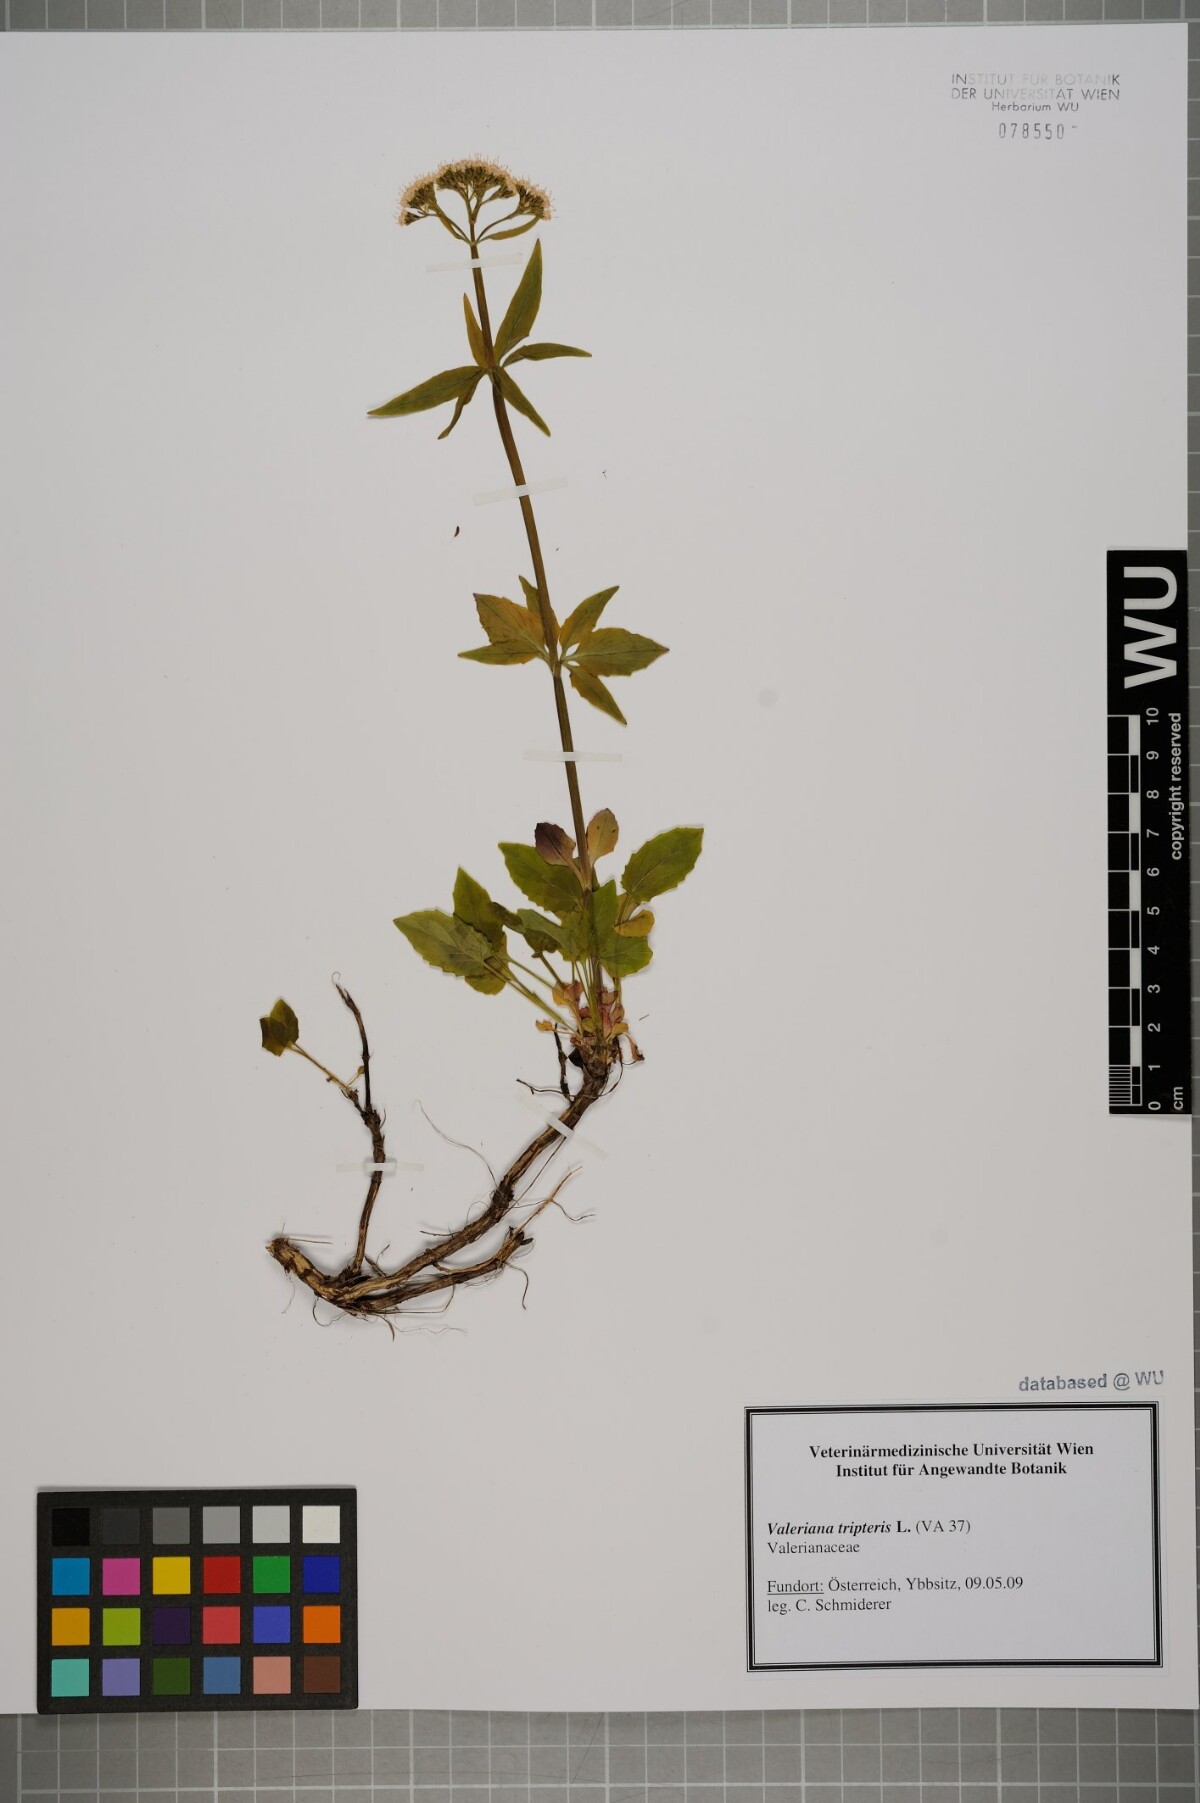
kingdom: Plantae
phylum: Tracheophyta
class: Magnoliopsida
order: Dipsacales
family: Caprifoliaceae
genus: Valeriana
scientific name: Valeriana tripteris
